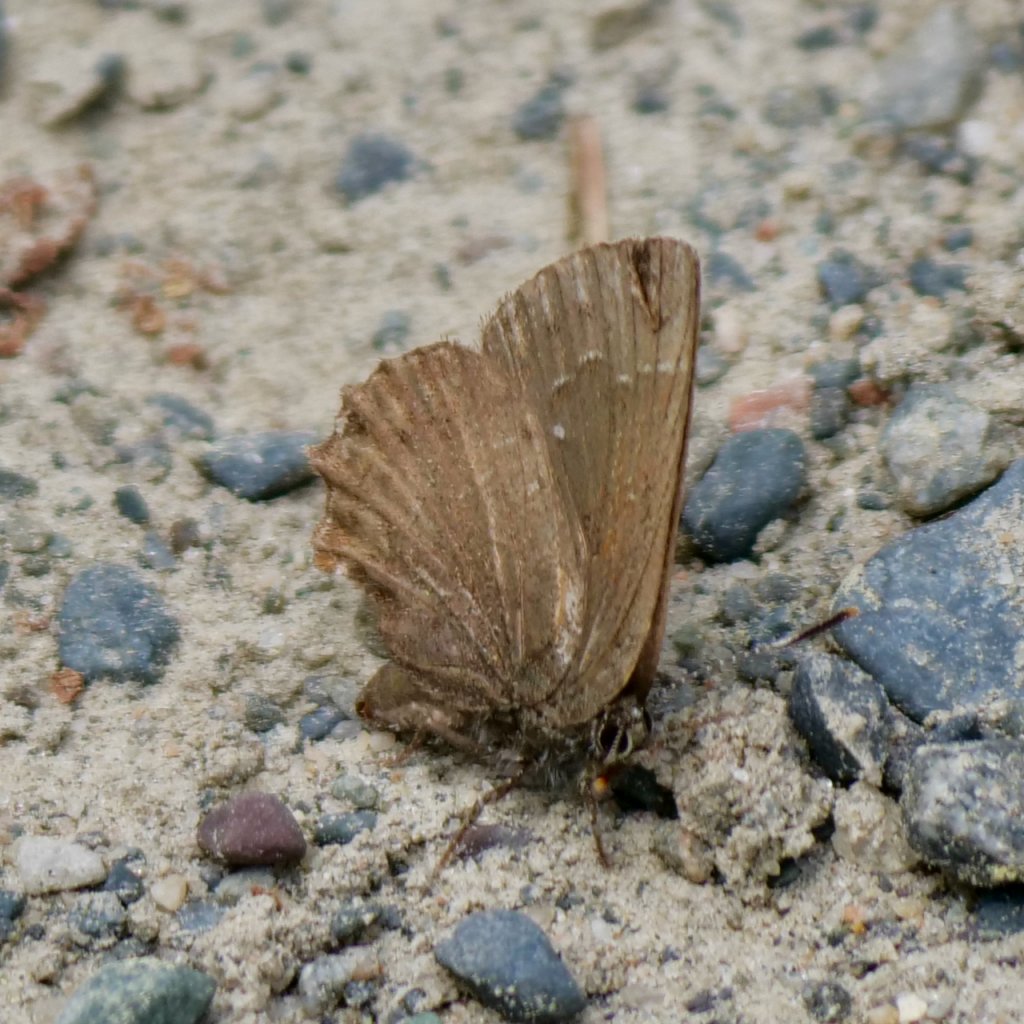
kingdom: Animalia
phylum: Arthropoda
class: Insecta
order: Lepidoptera
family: Lycaenidae
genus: Callophrys
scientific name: Callophrys
